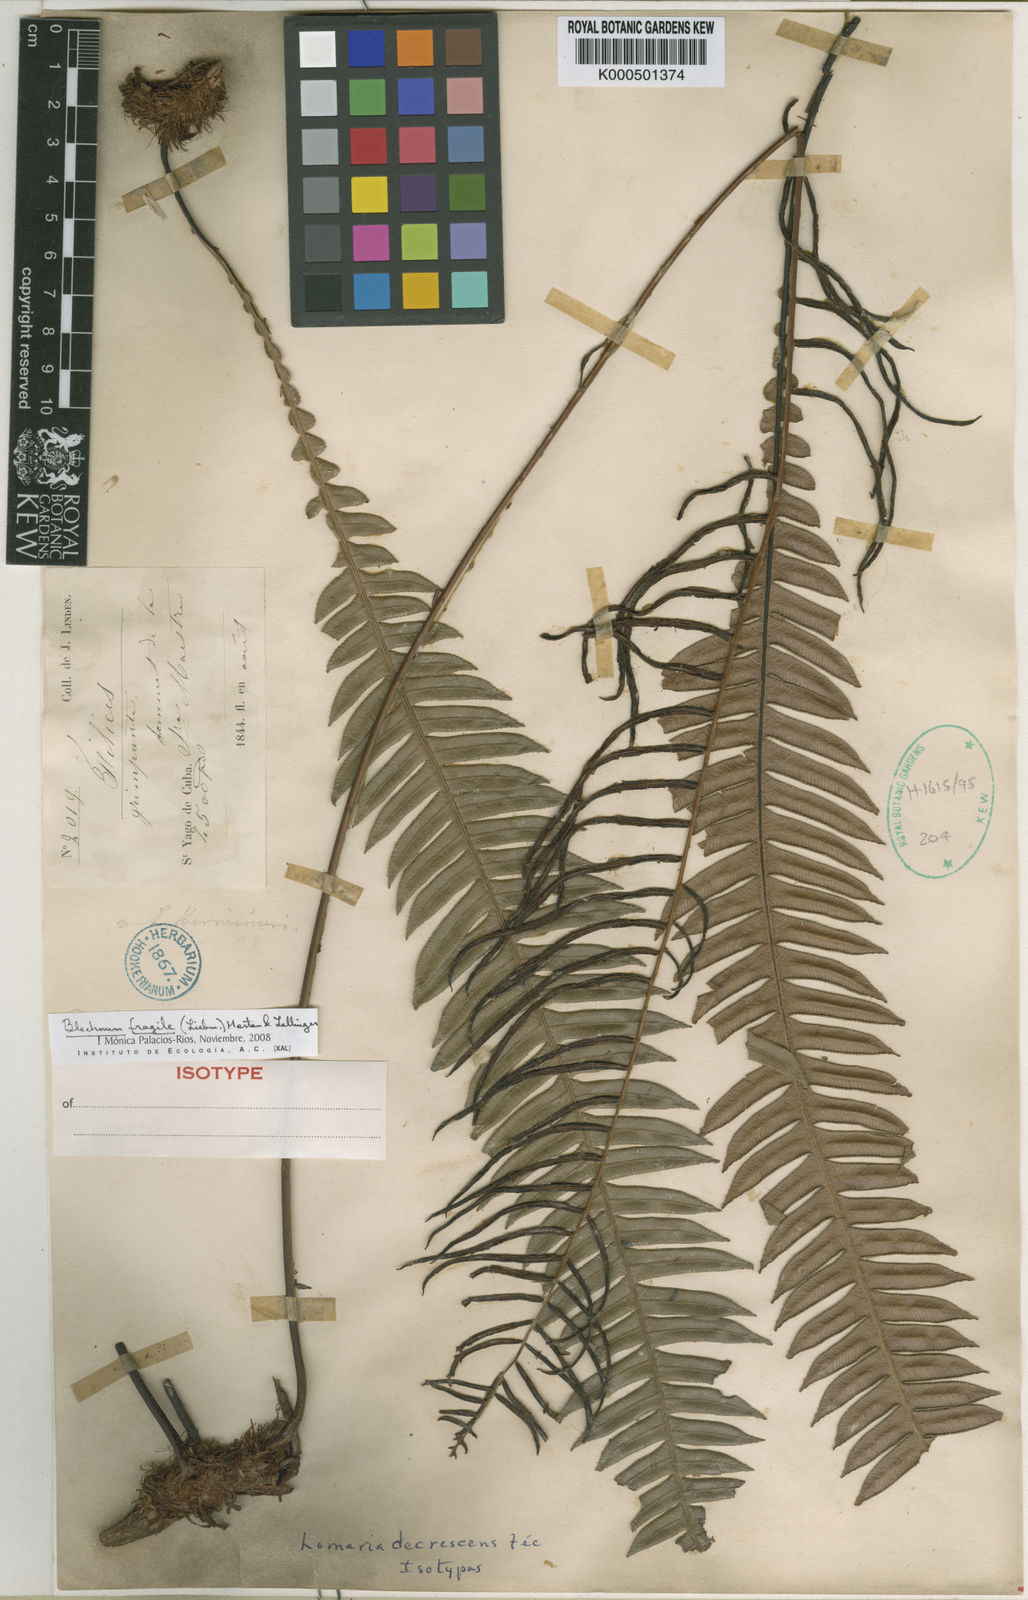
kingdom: Plantae
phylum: Tracheophyta
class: Polypodiopsida
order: Polypodiales
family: Blechnaceae
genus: Lomaridium
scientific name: Lomaridium fragile
